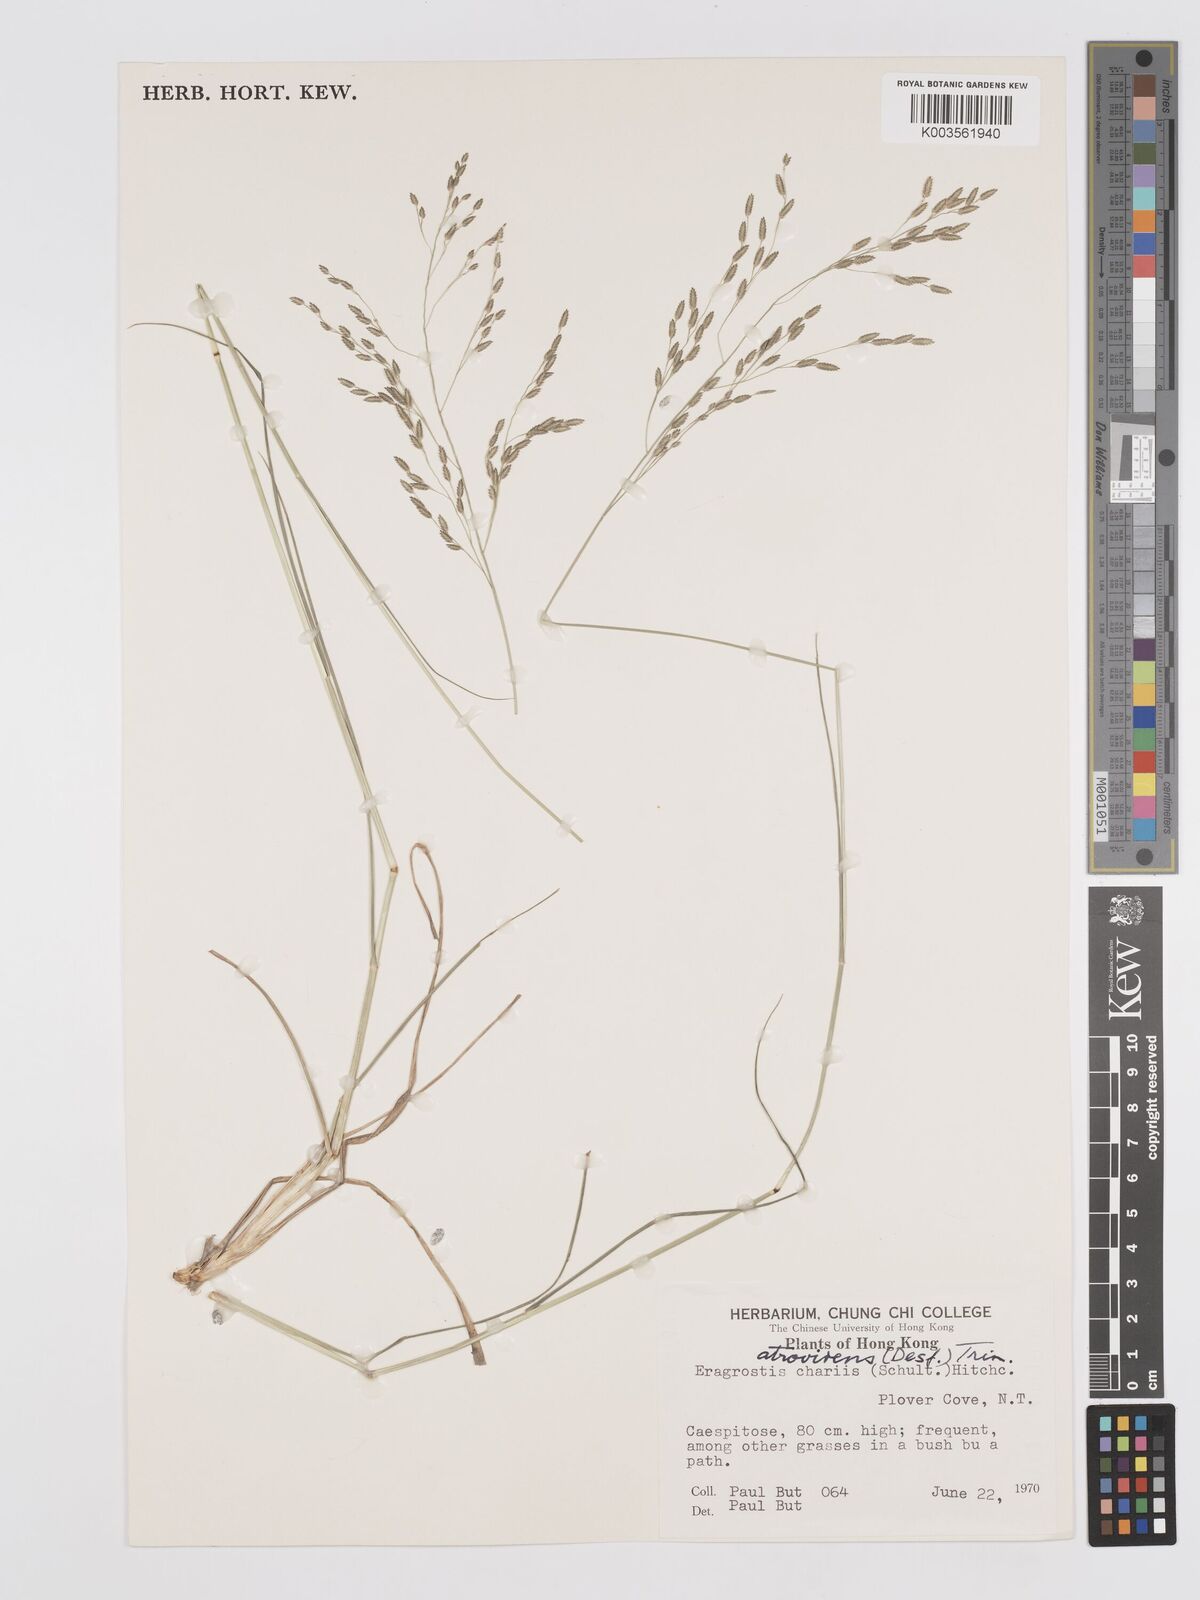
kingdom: Plantae
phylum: Tracheophyta
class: Liliopsida
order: Poales
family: Poaceae
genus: Eragrostis
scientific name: Eragrostis atrovirens
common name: Thalia lovegrass
